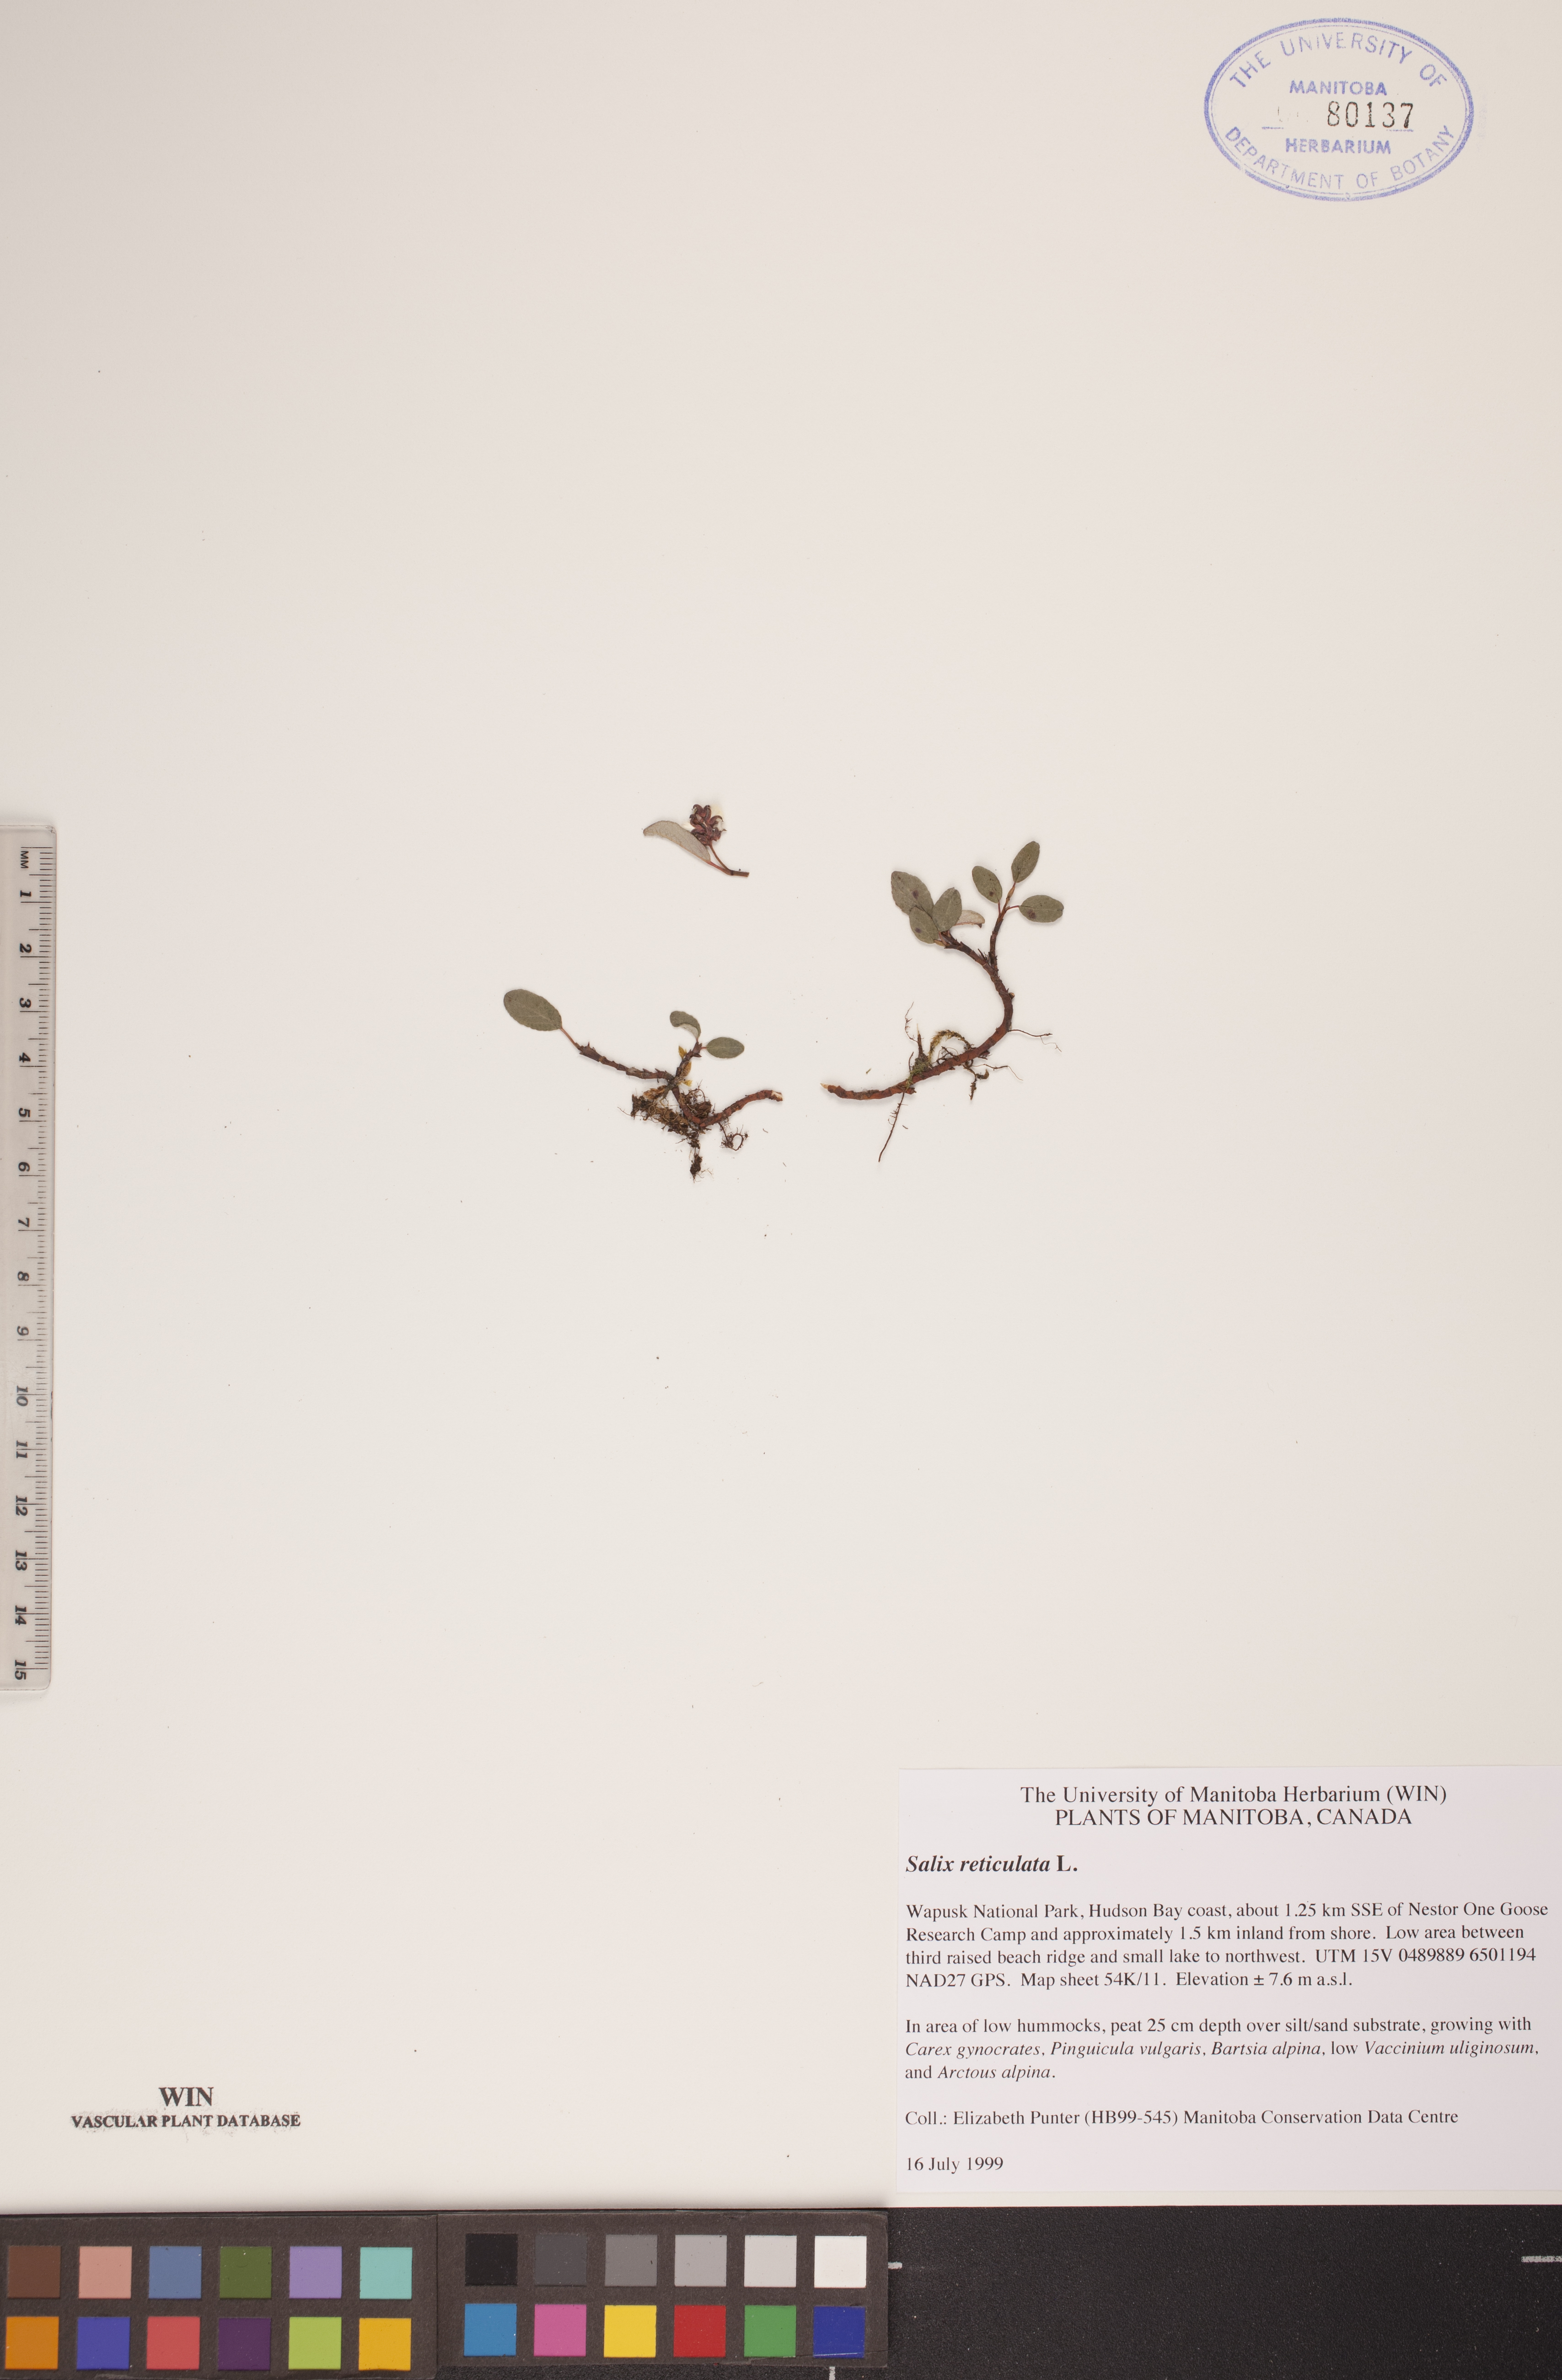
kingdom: Plantae
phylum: Tracheophyta
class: Magnoliopsida
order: Malpighiales
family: Salicaceae
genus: Salix
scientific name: Salix reticulata
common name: Net-leaved willow
